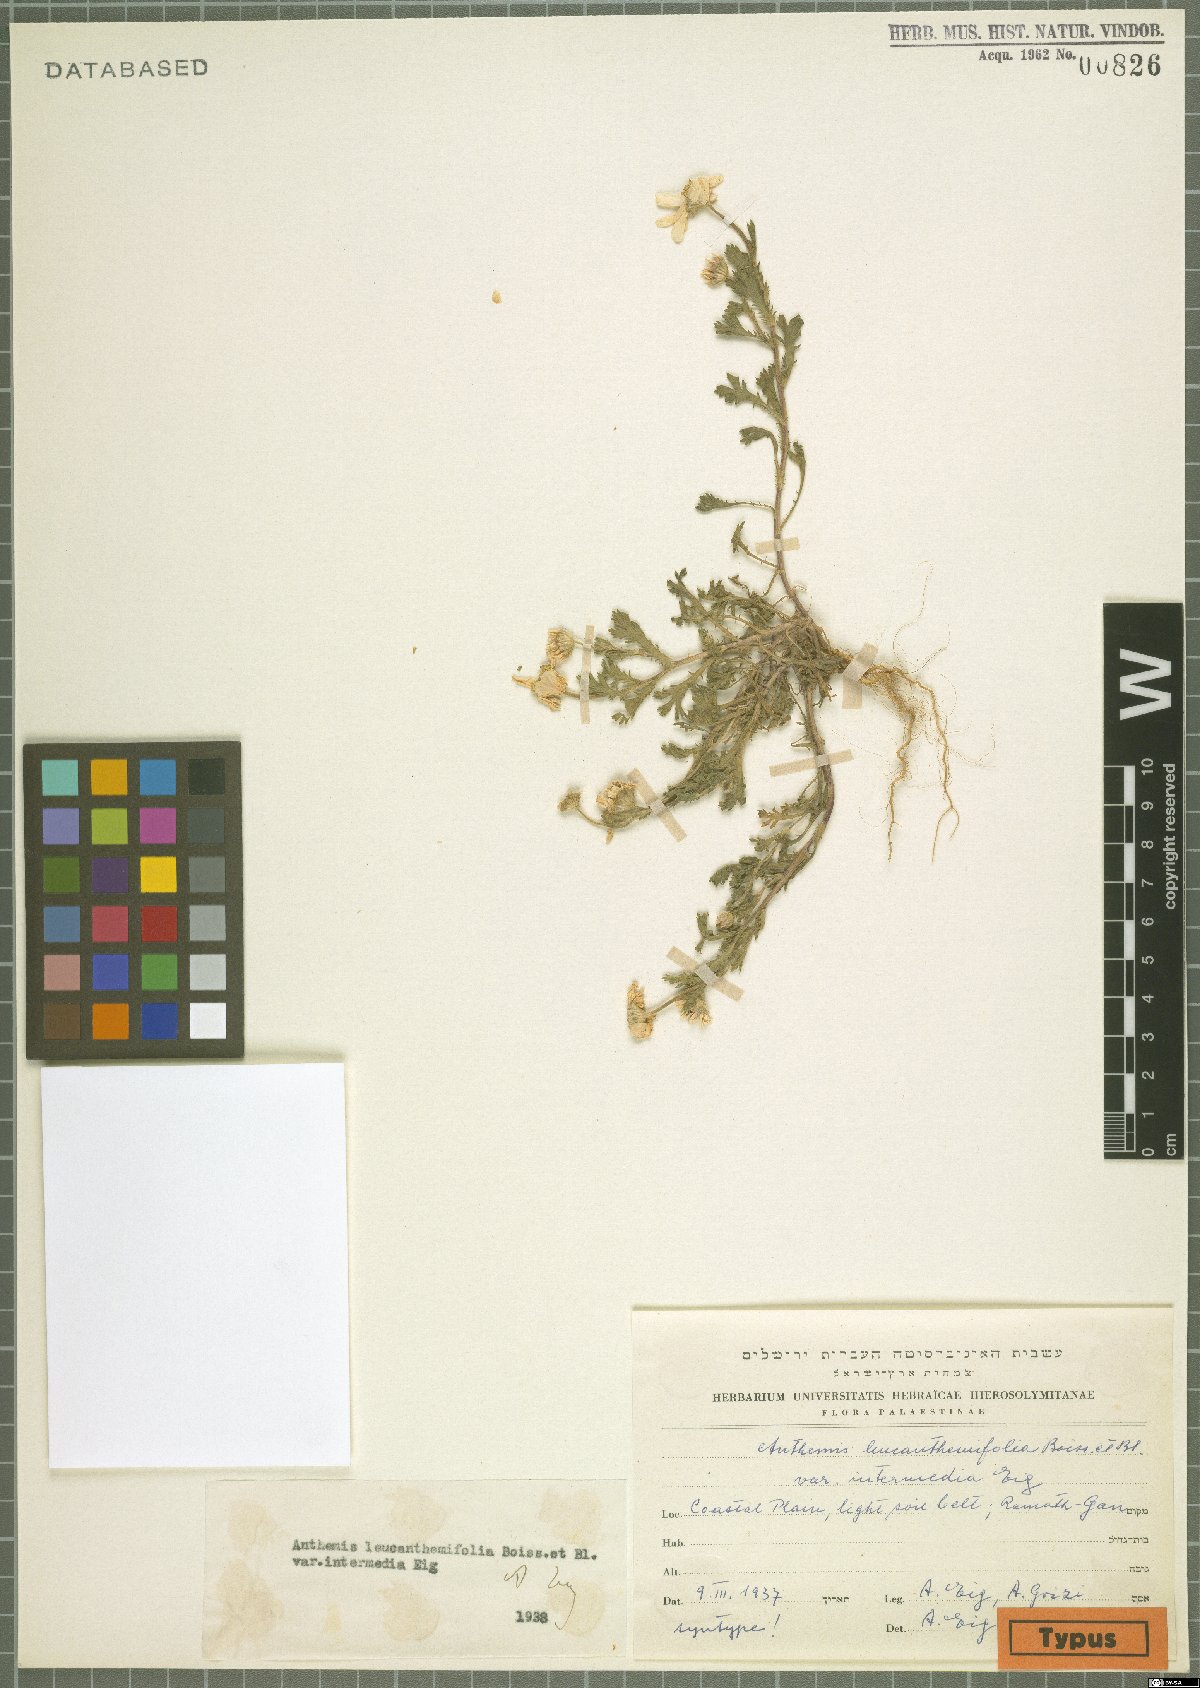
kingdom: Plantae
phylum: Tracheophyta
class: Magnoliopsida
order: Asterales
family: Asteraceae
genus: Anthemis
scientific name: Anthemis leucanthemifolia
